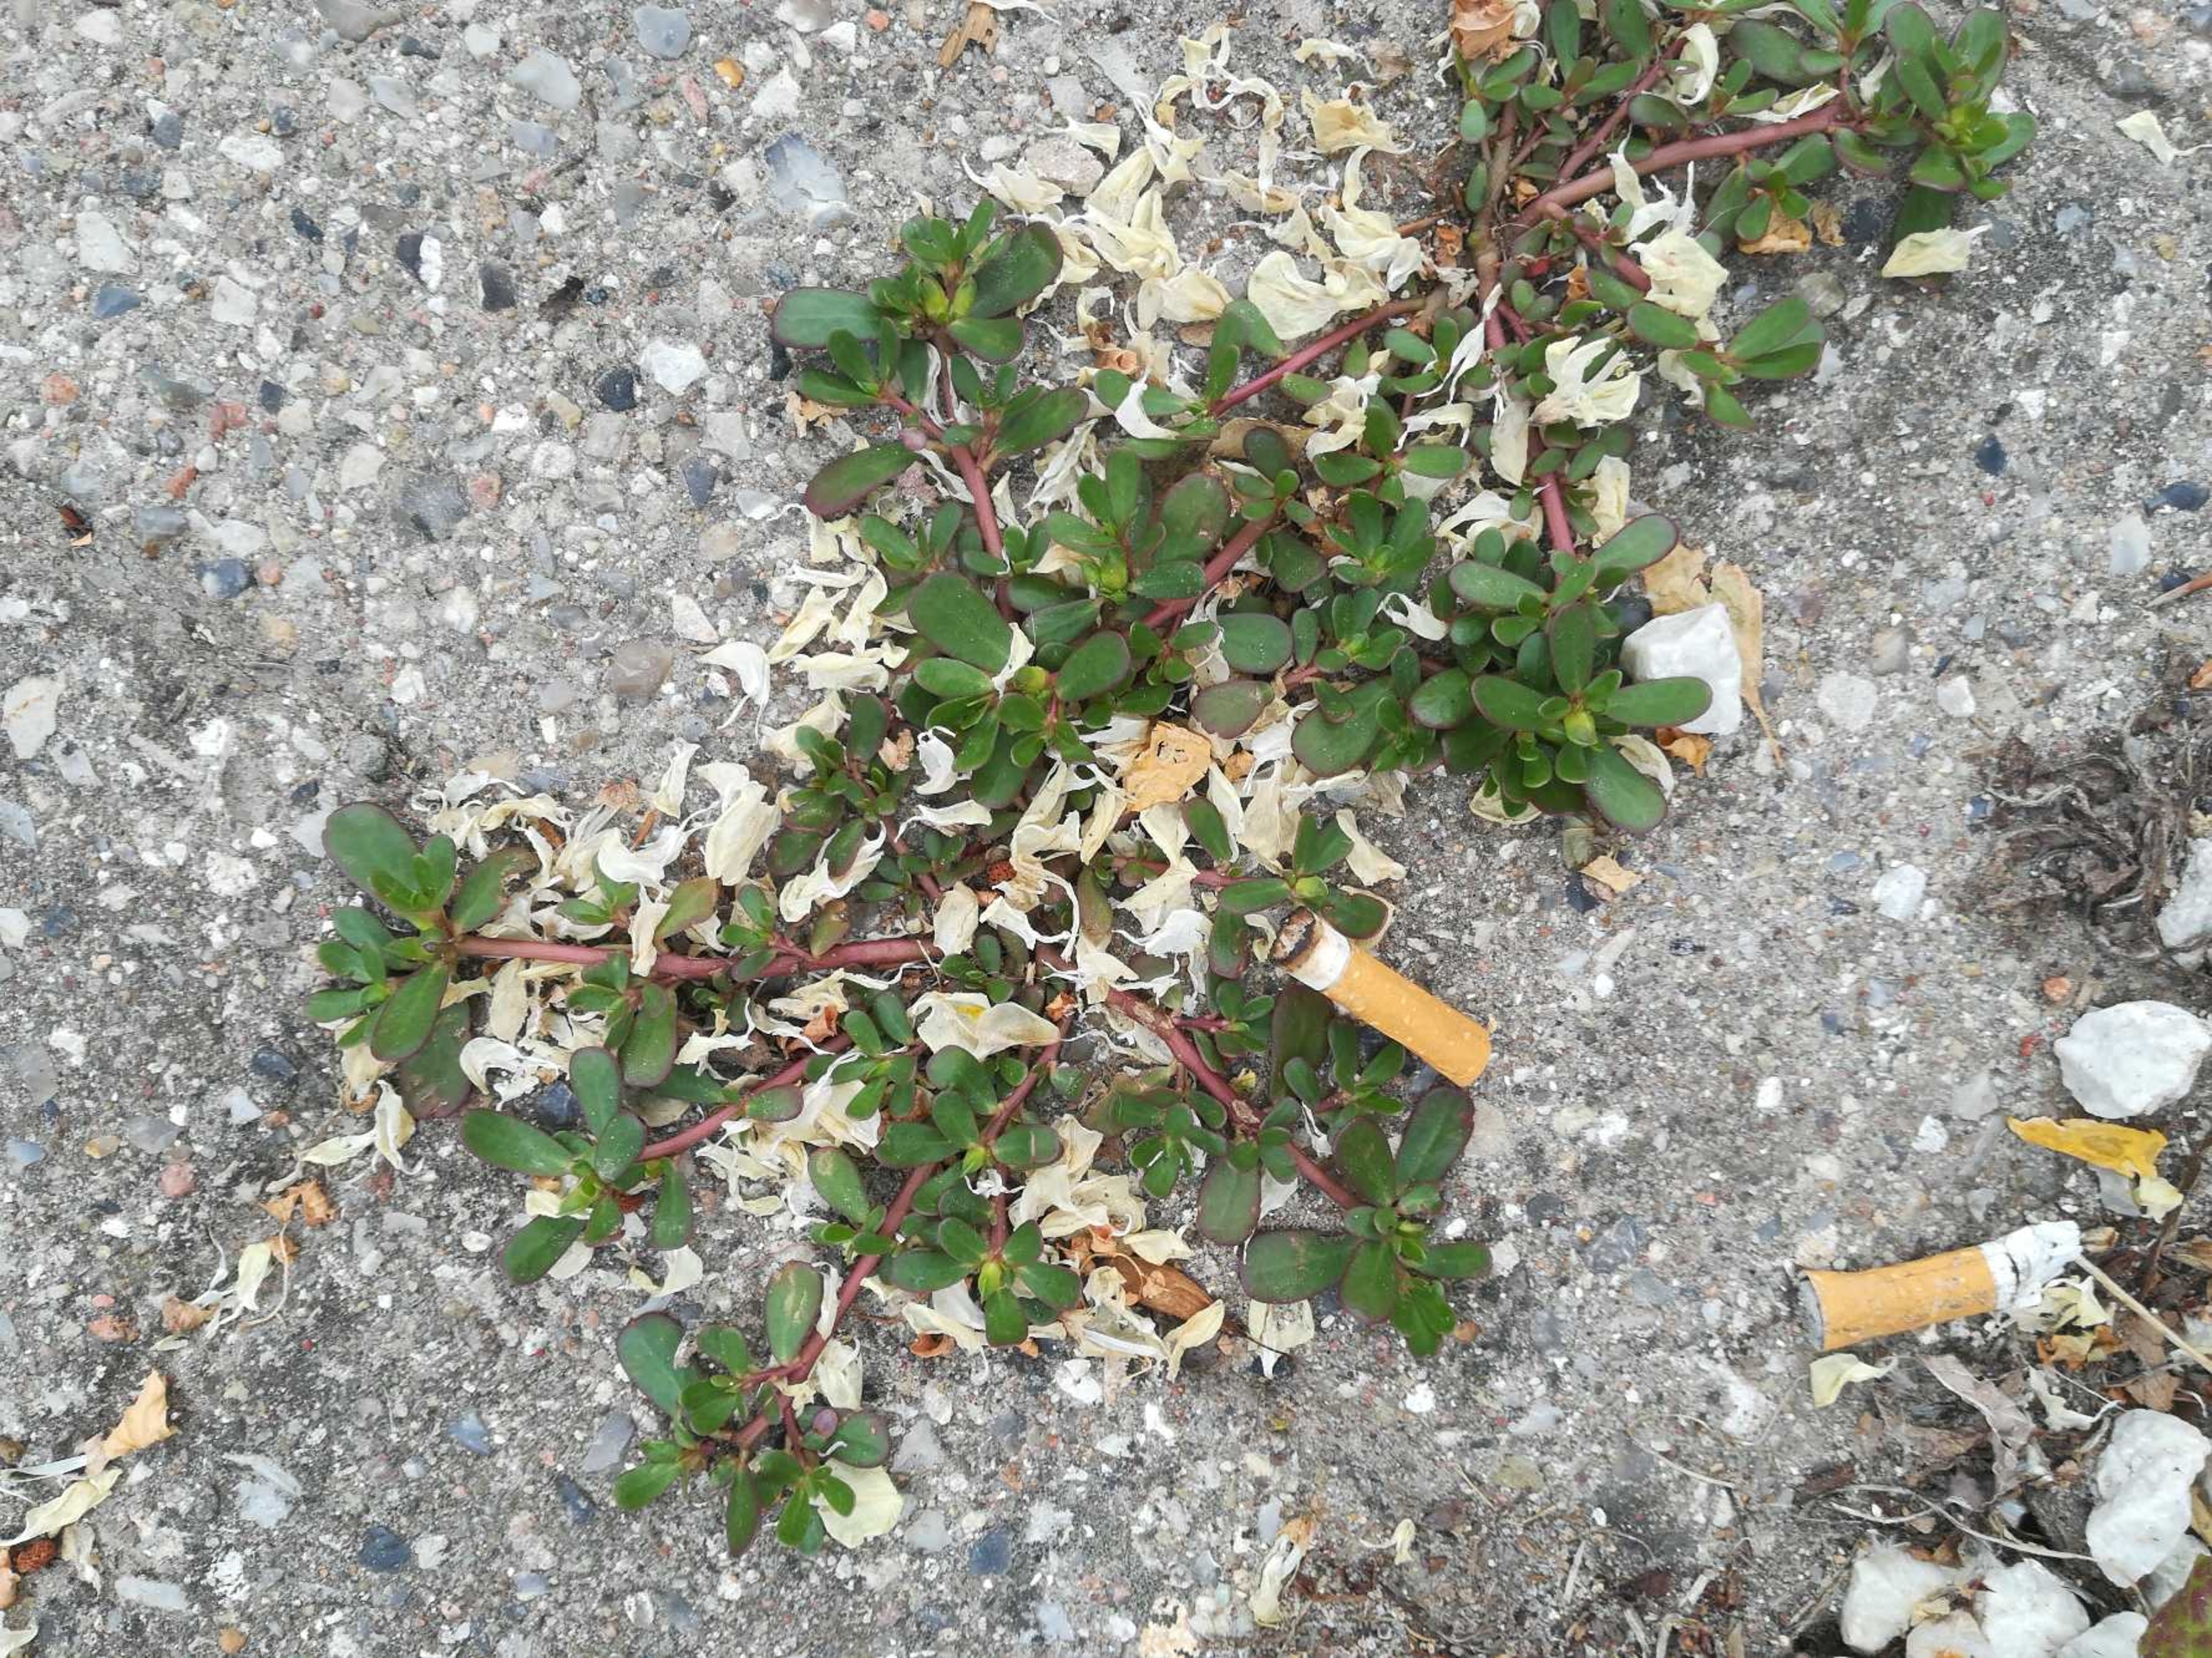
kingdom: Plantae
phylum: Tracheophyta
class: Magnoliopsida
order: Caryophyllales
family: Portulacaceae
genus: Portulaca
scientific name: Portulaca oleracea
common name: Portulak
